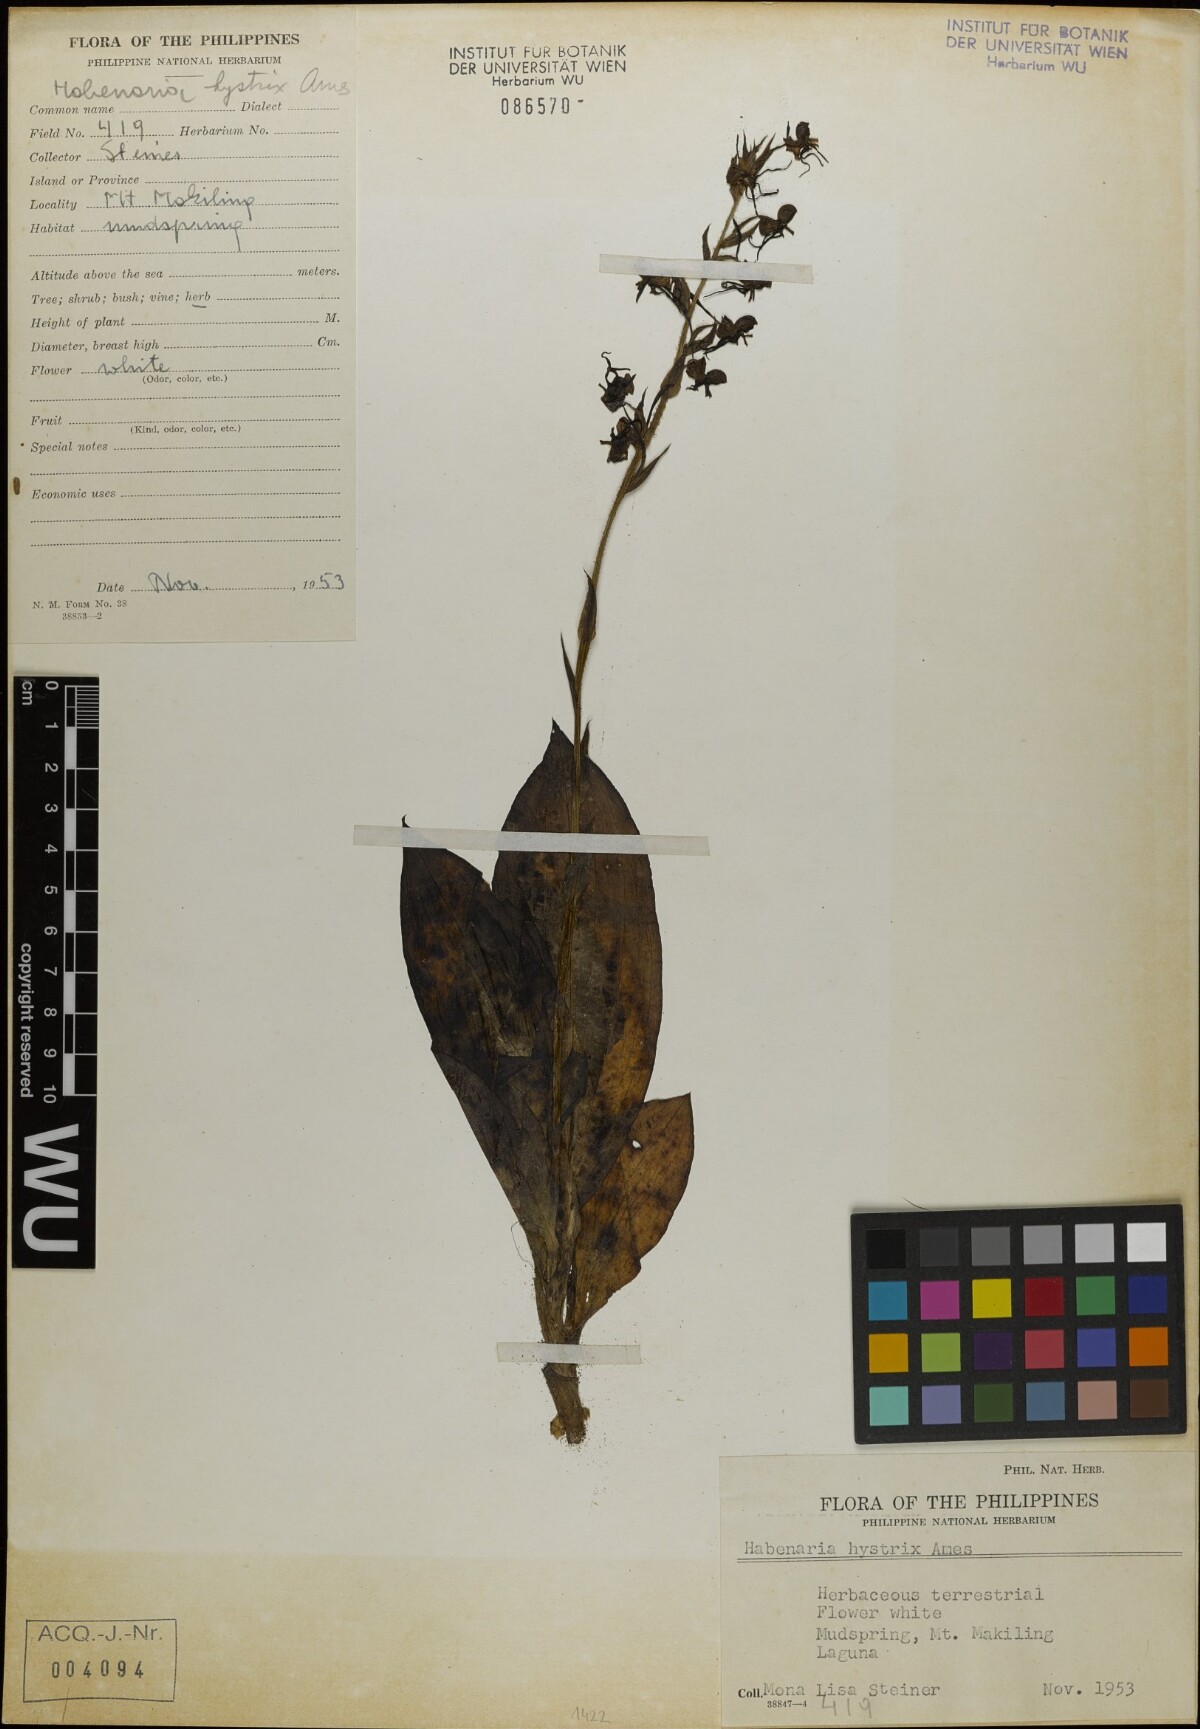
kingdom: Plantae
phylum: Tracheophyta
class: Liliopsida
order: Asparagales
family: Orchidaceae
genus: Habenaria
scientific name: Habenaria muricata
